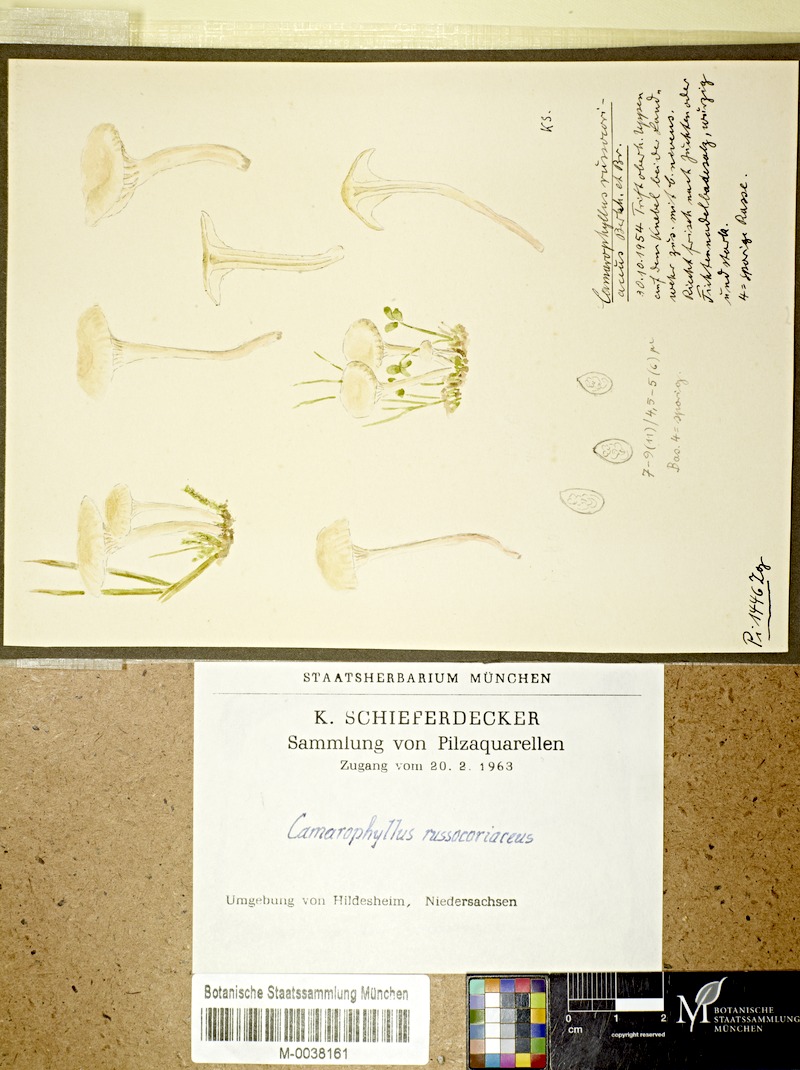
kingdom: Fungi
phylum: Basidiomycota
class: Agaricomycetes
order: Agaricales
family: Hygrophoraceae
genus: Cuphophyllus
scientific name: Cuphophyllus russocoriaceus
